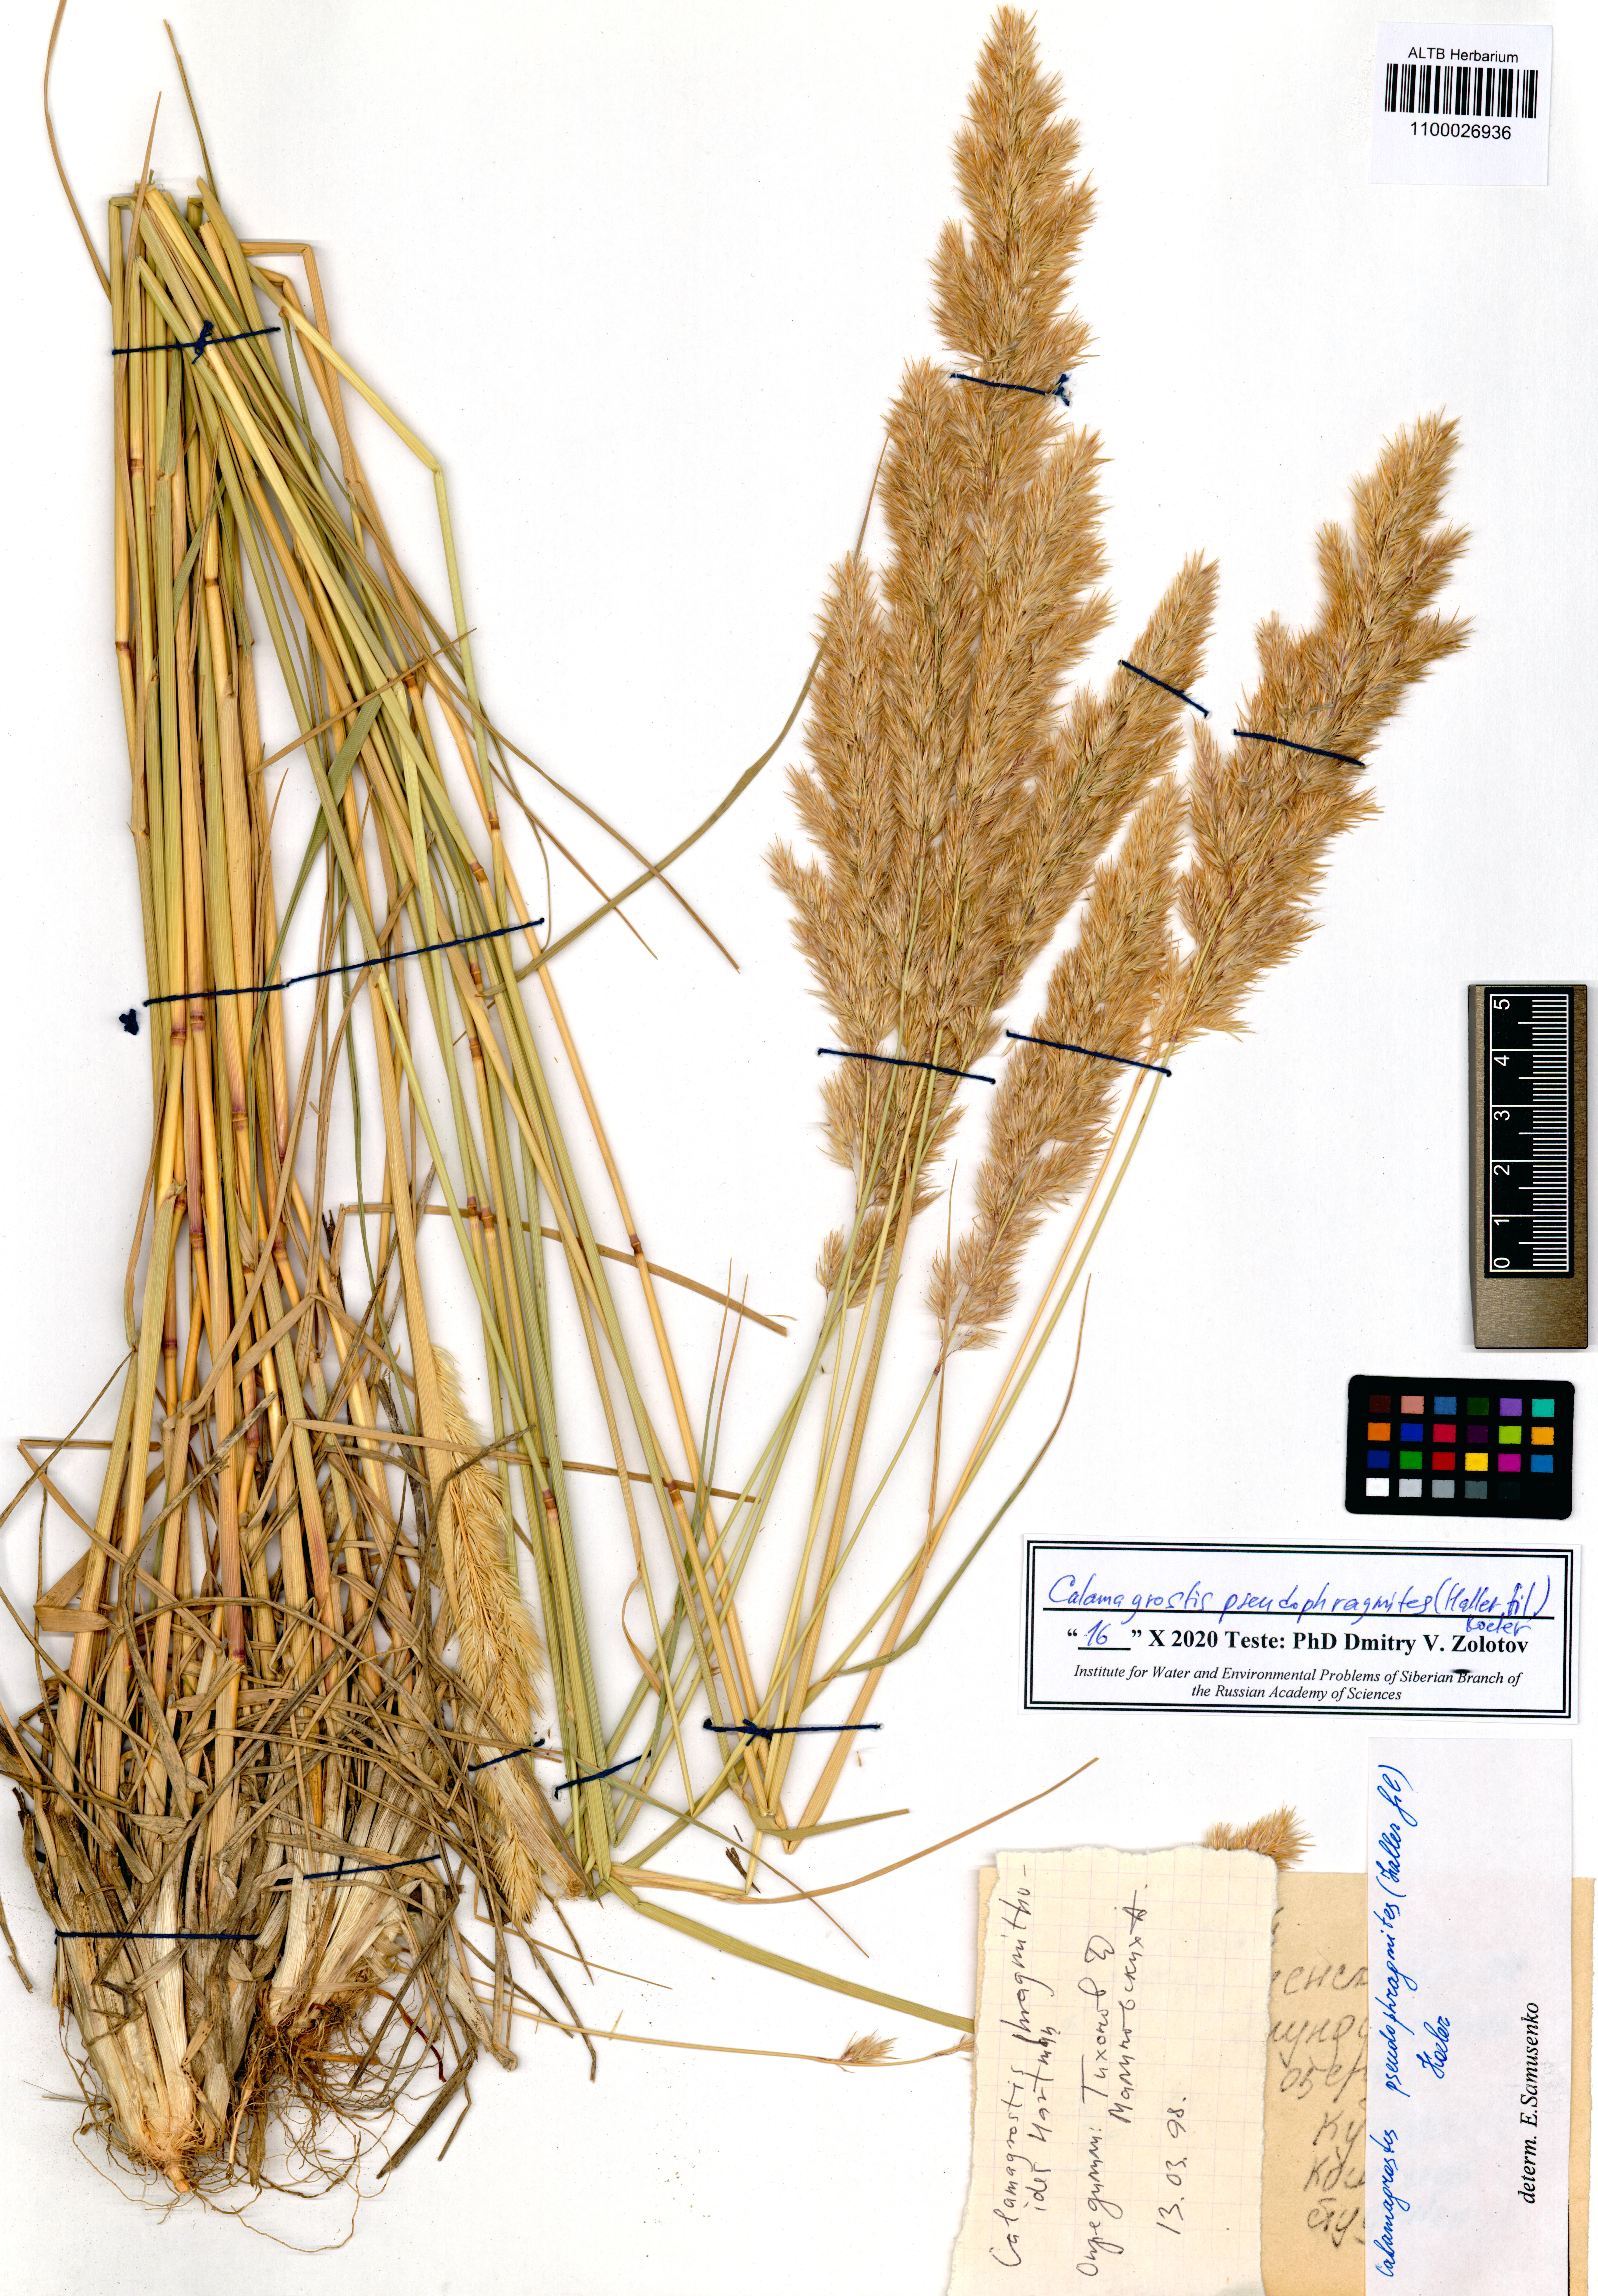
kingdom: Plantae
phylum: Tracheophyta
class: Liliopsida
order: Poales
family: Poaceae
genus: Calamagrostis
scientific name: Calamagrostis pseudophragmites
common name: Coastal small-reed
